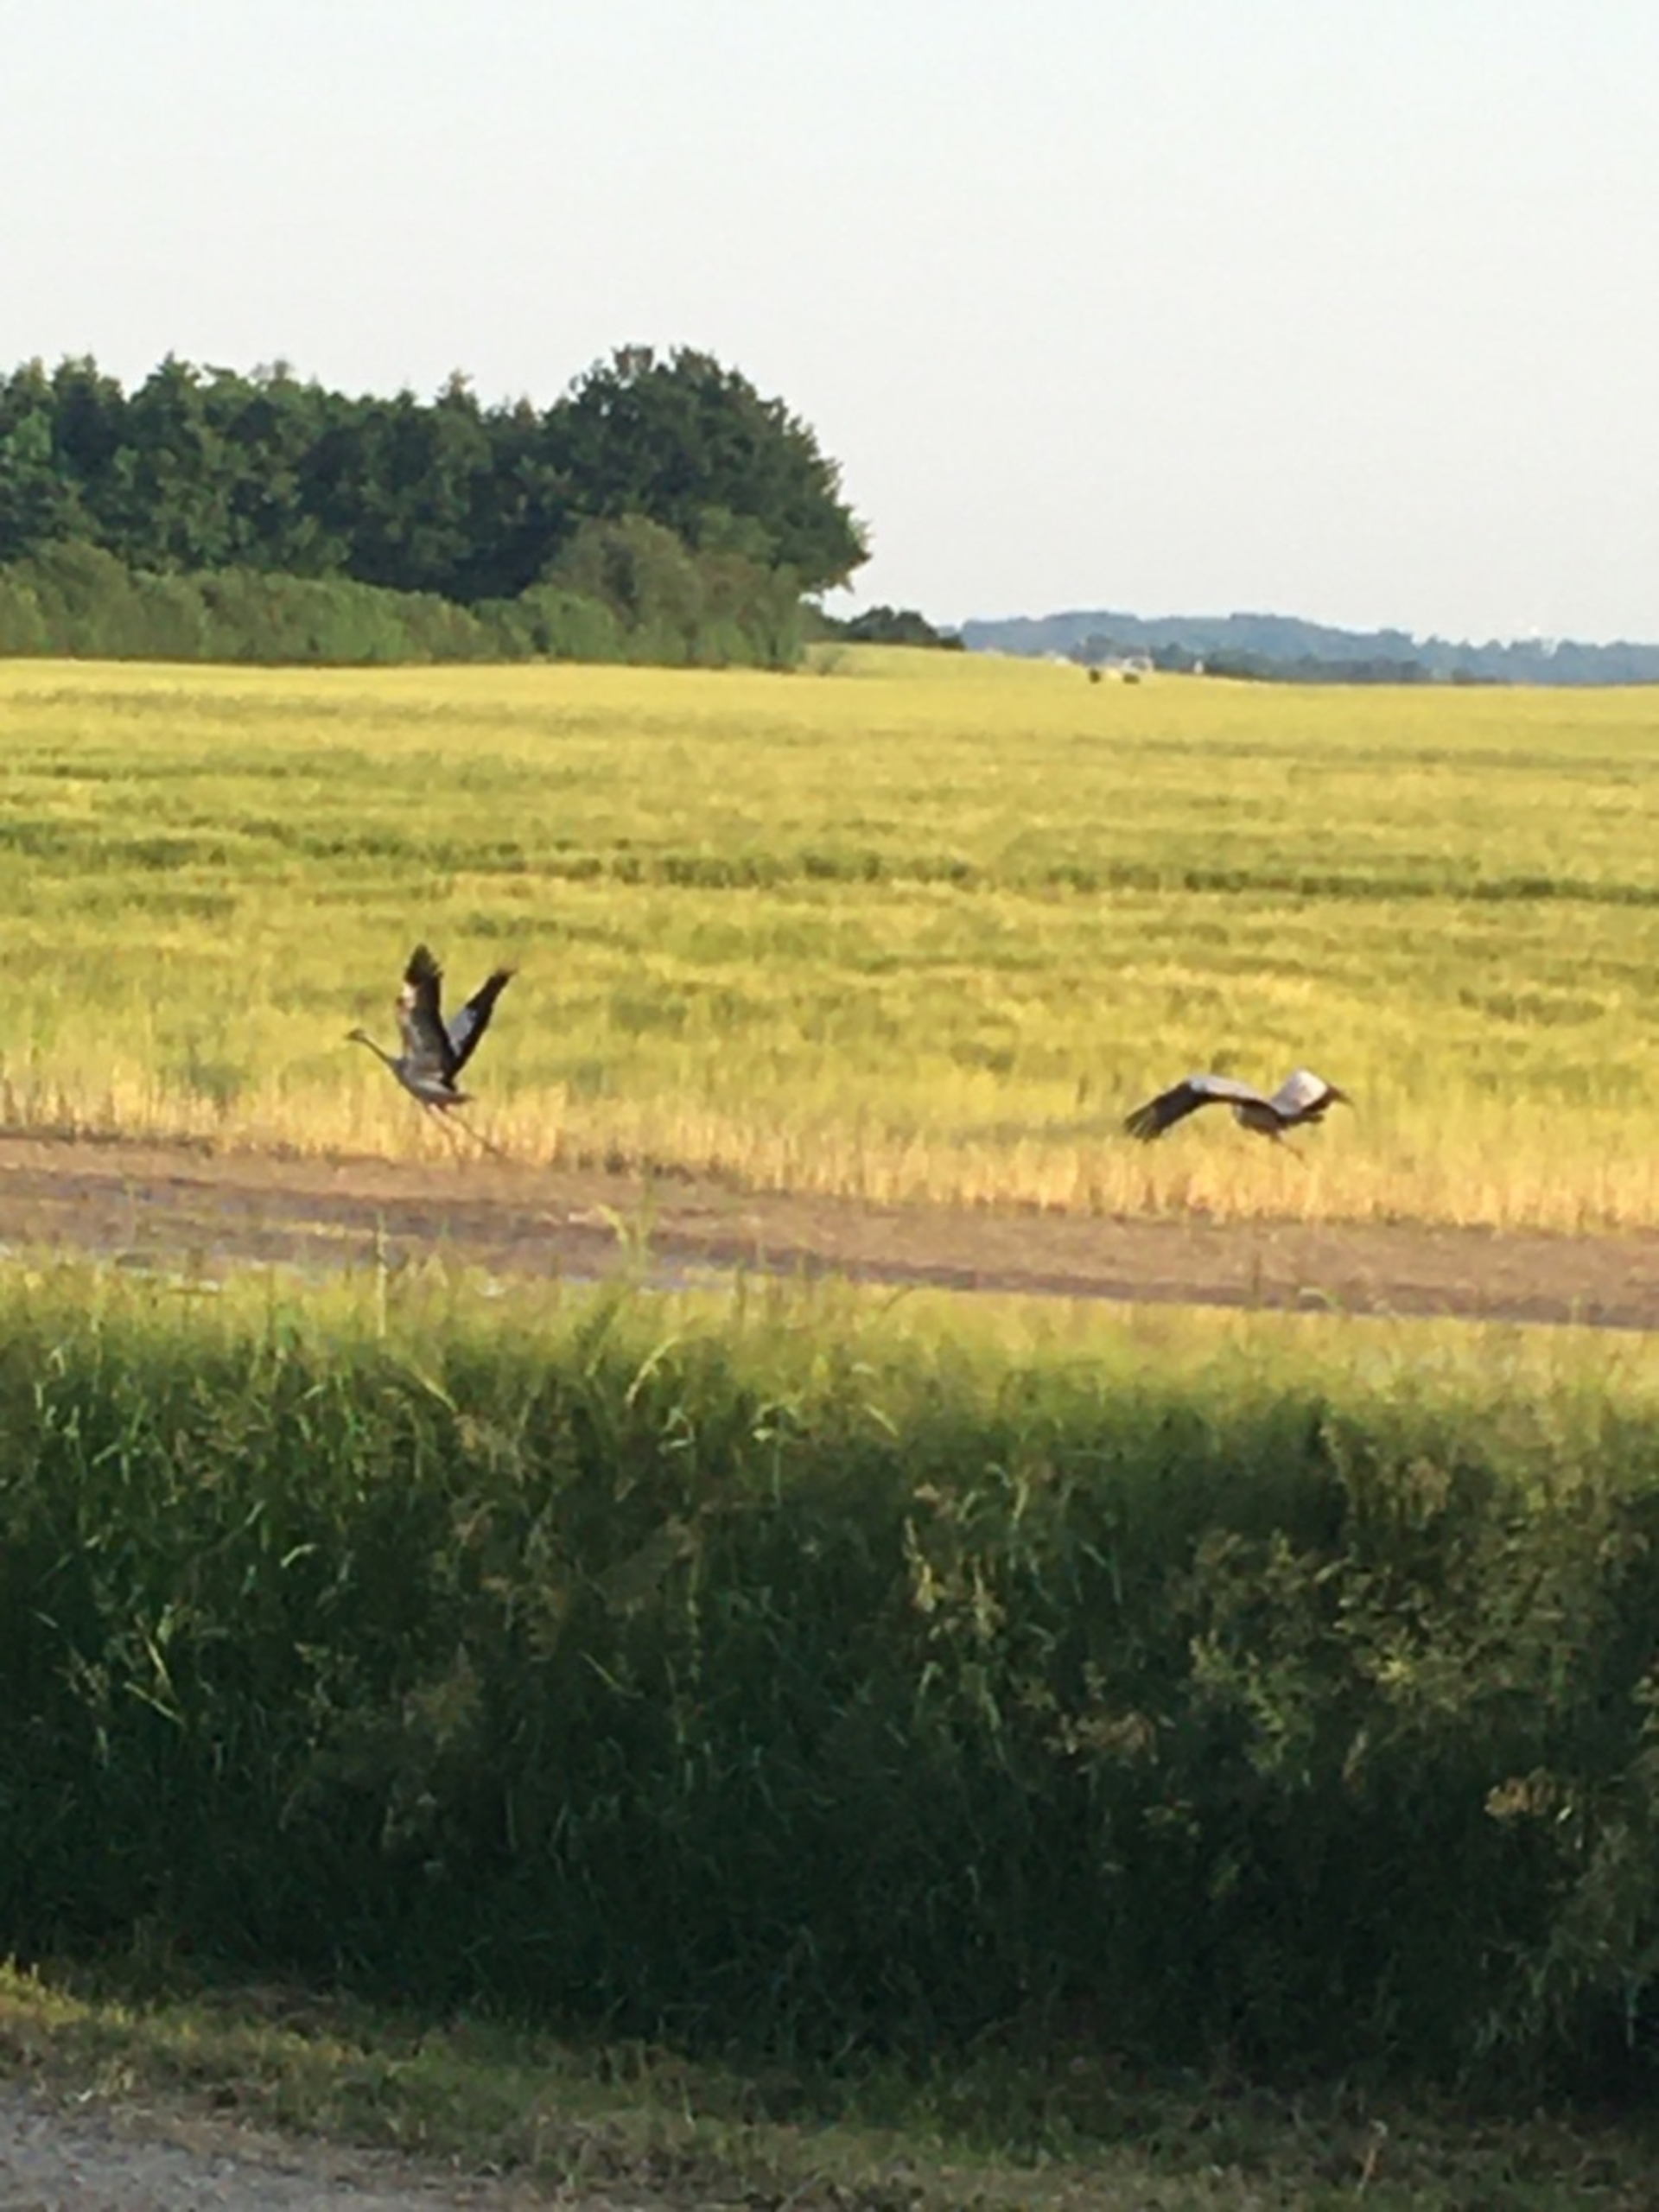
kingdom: Animalia
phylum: Chordata
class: Aves
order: Pelecaniformes
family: Ardeidae
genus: Ardea
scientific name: Ardea cinerea
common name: Fiskehejre
